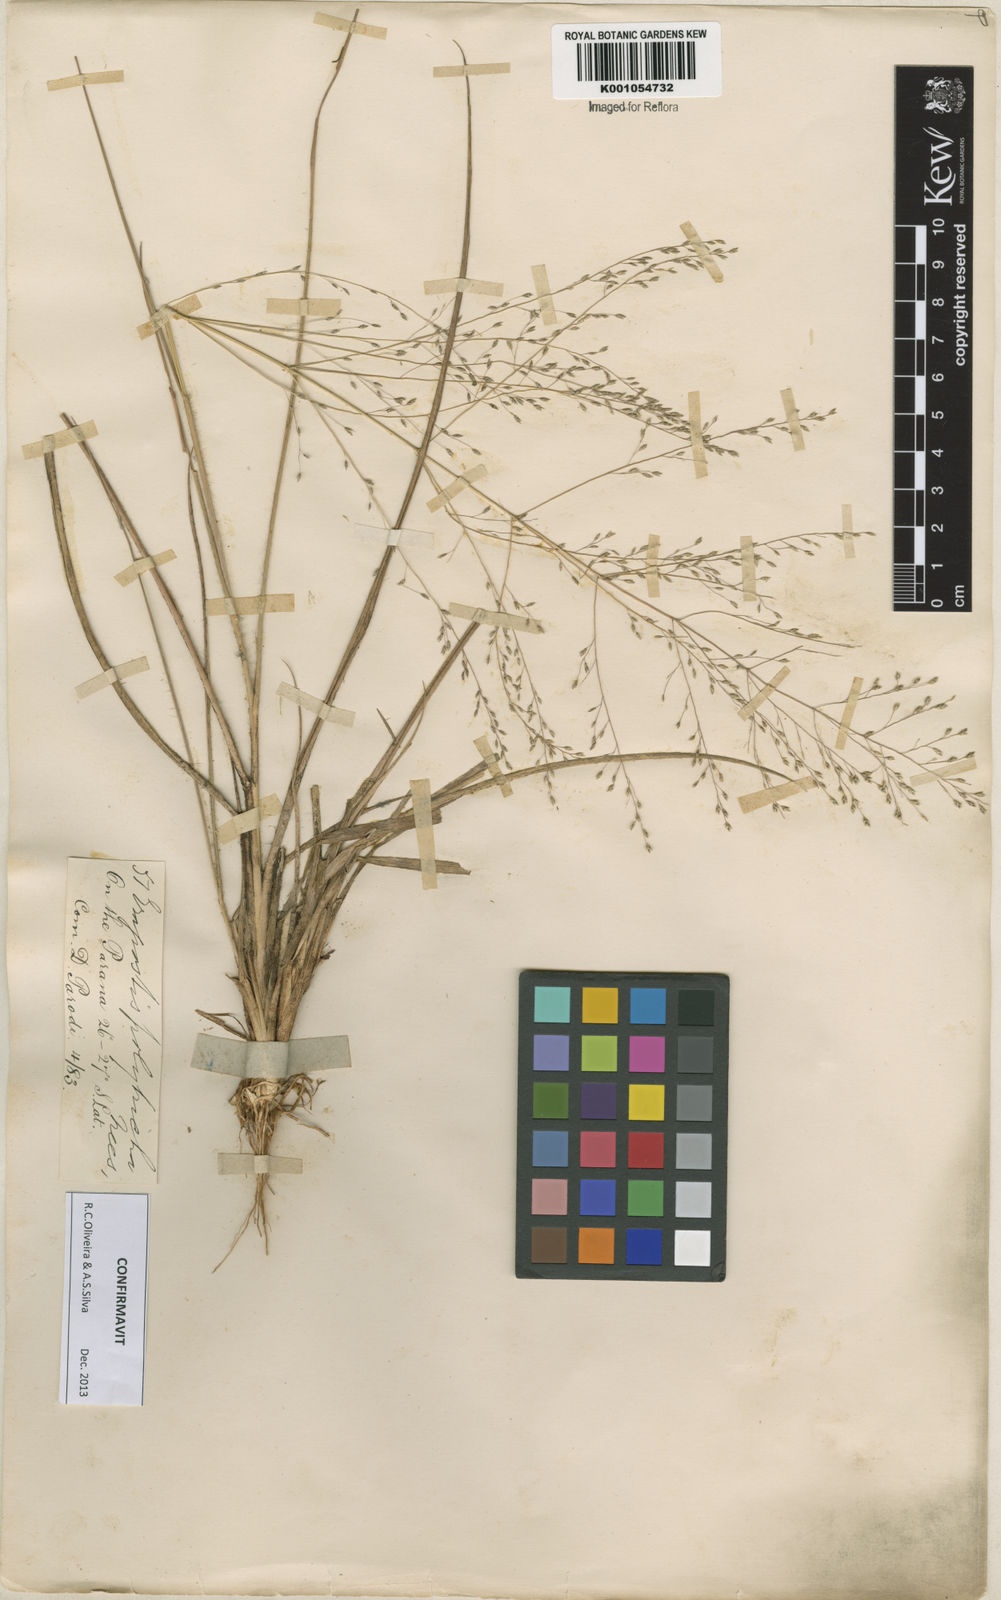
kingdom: Plantae
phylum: Tracheophyta
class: Liliopsida
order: Poales
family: Poaceae
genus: Eragrostis
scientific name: Eragrostis lugens
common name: Mourning love grass
